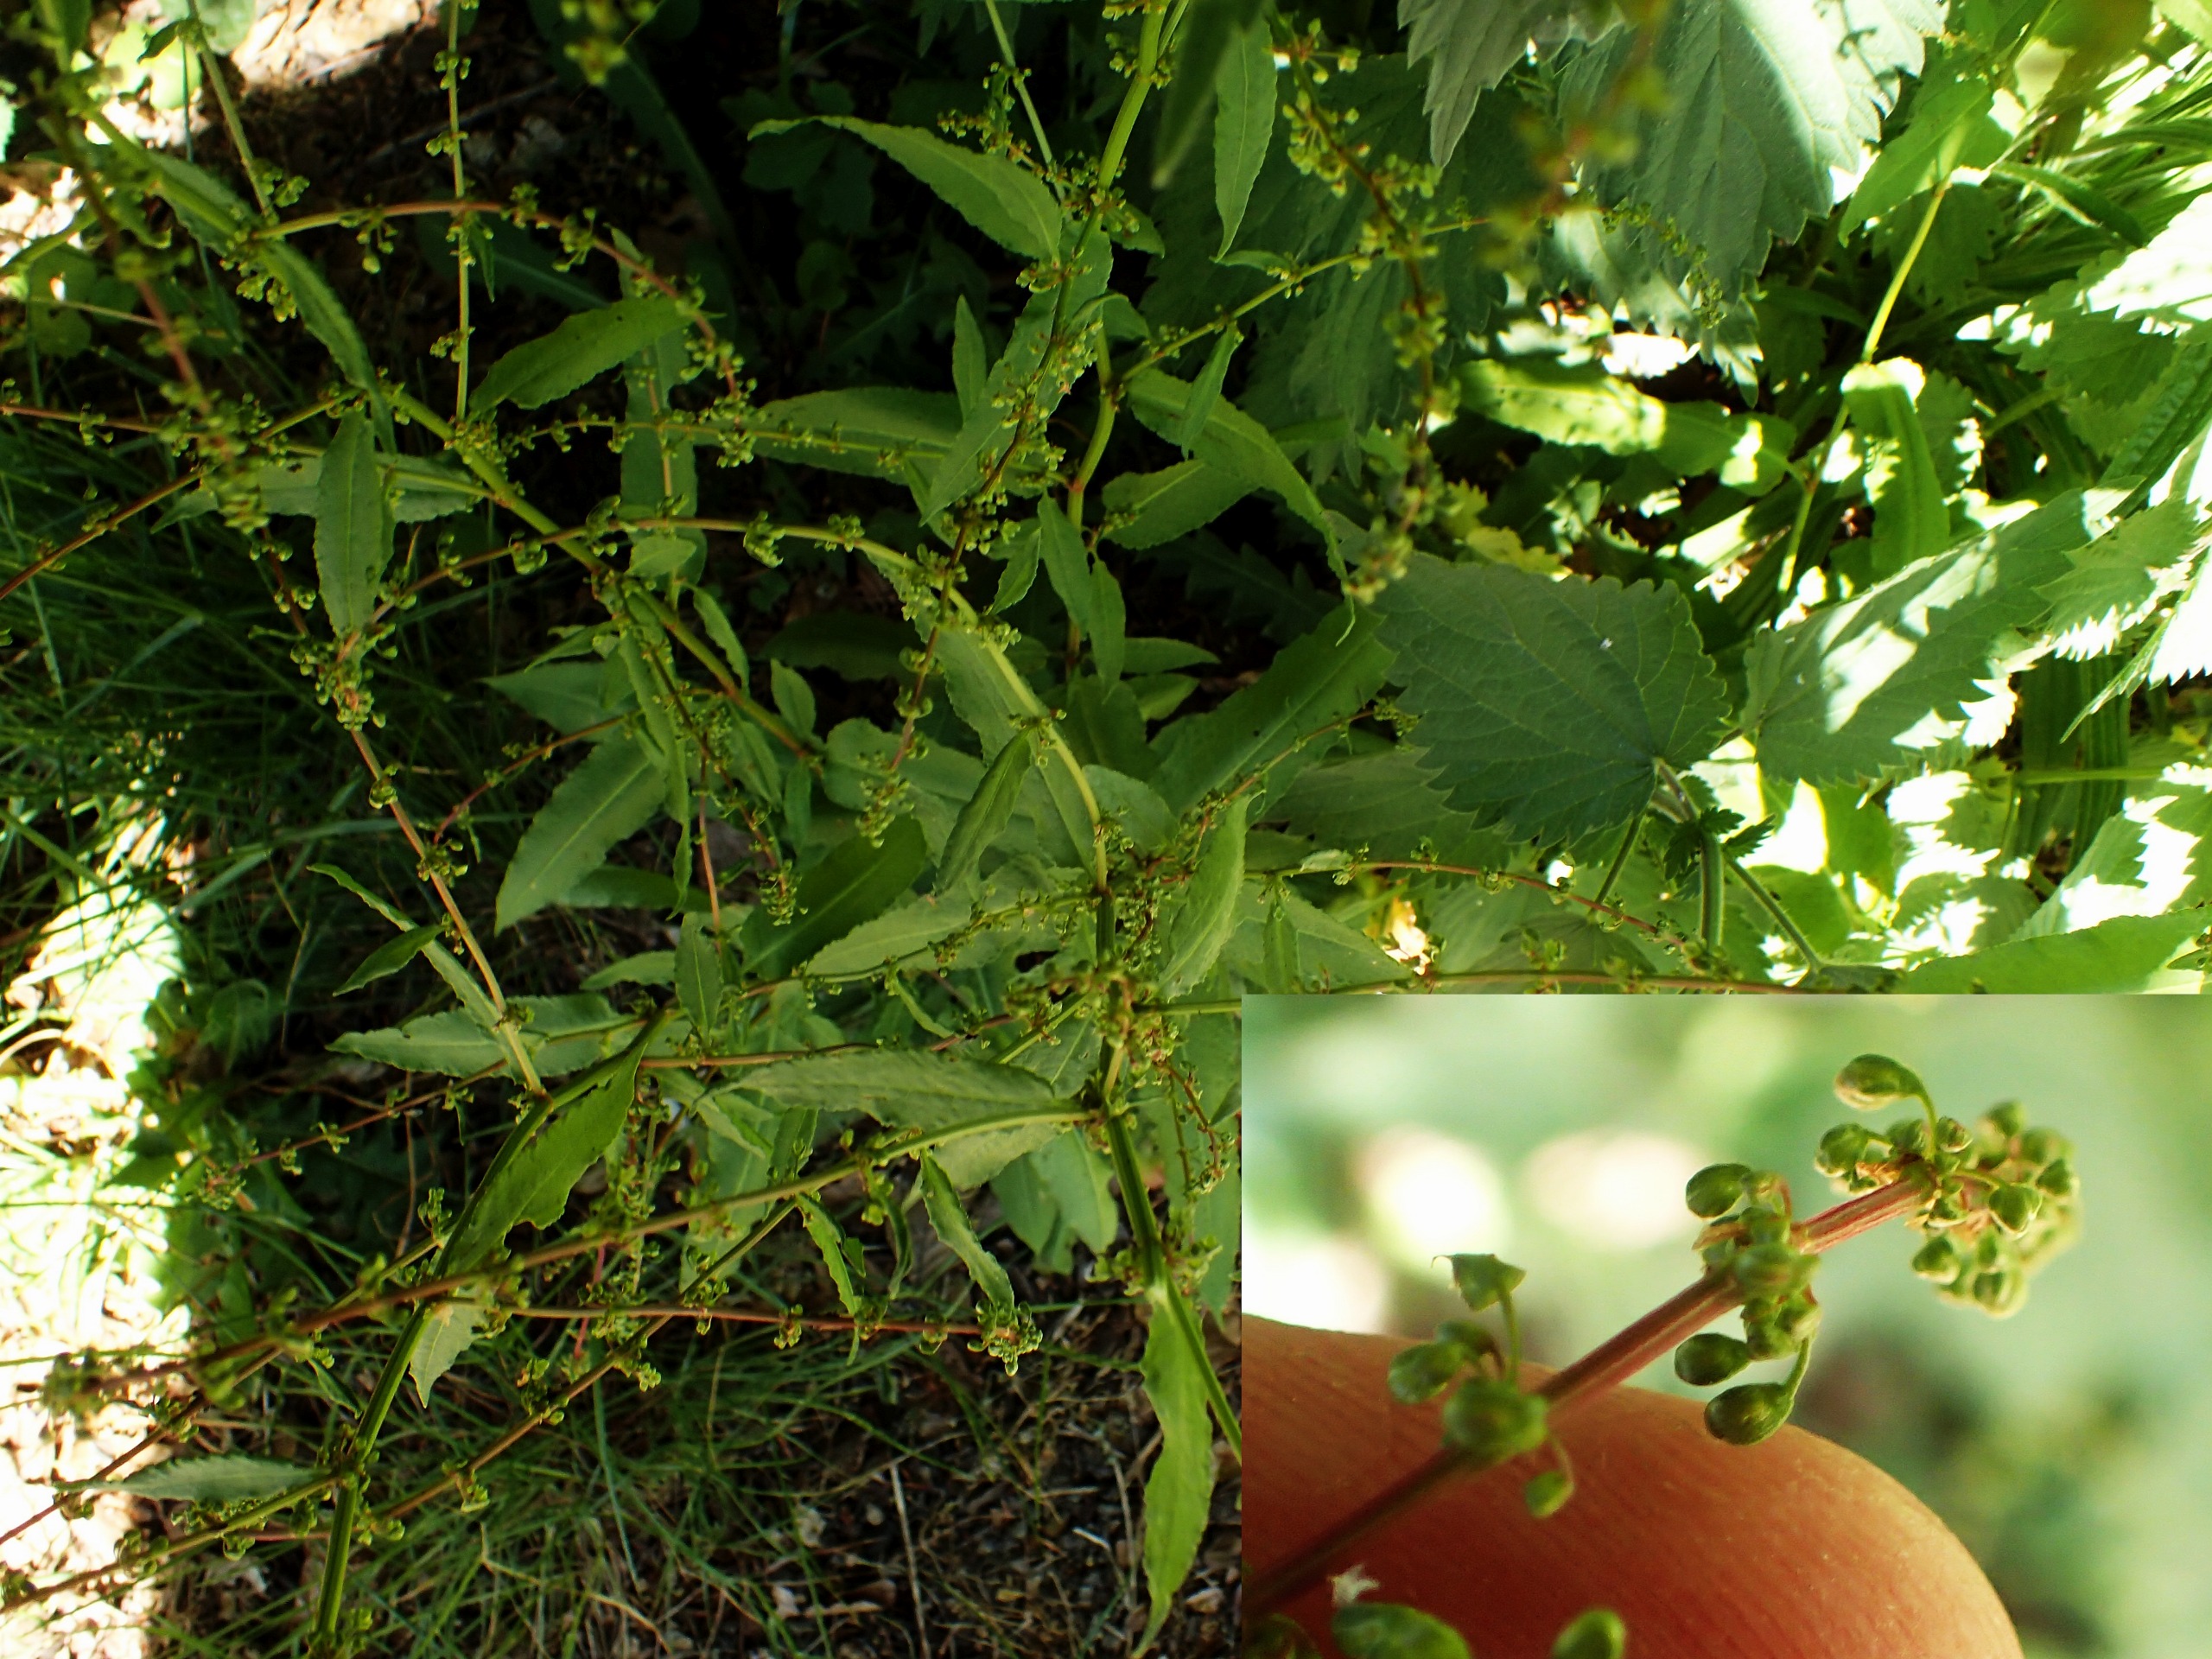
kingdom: Plantae
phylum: Tracheophyta
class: Magnoliopsida
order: Caryophyllales
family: Polygonaceae
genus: Rumex
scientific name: Rumex sanguineus
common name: Skov-skræppe
